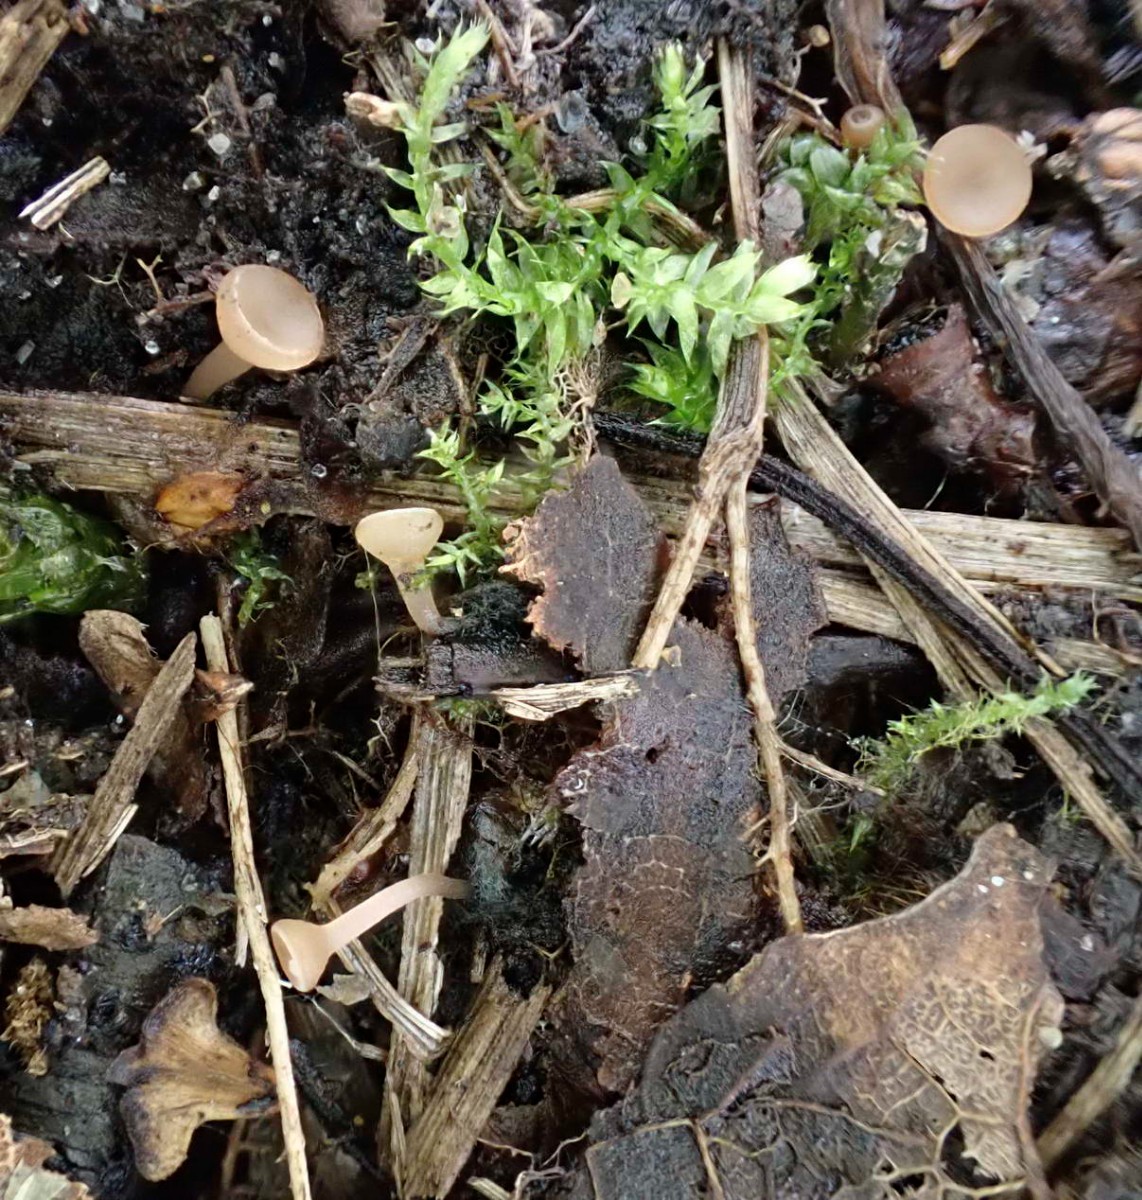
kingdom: Fungi
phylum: Ascomycota
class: Leotiomycetes
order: Helotiales
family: Sclerotiniaceae
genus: Ciboria
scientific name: Ciboria betulae
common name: birkefrø-knoldskive
